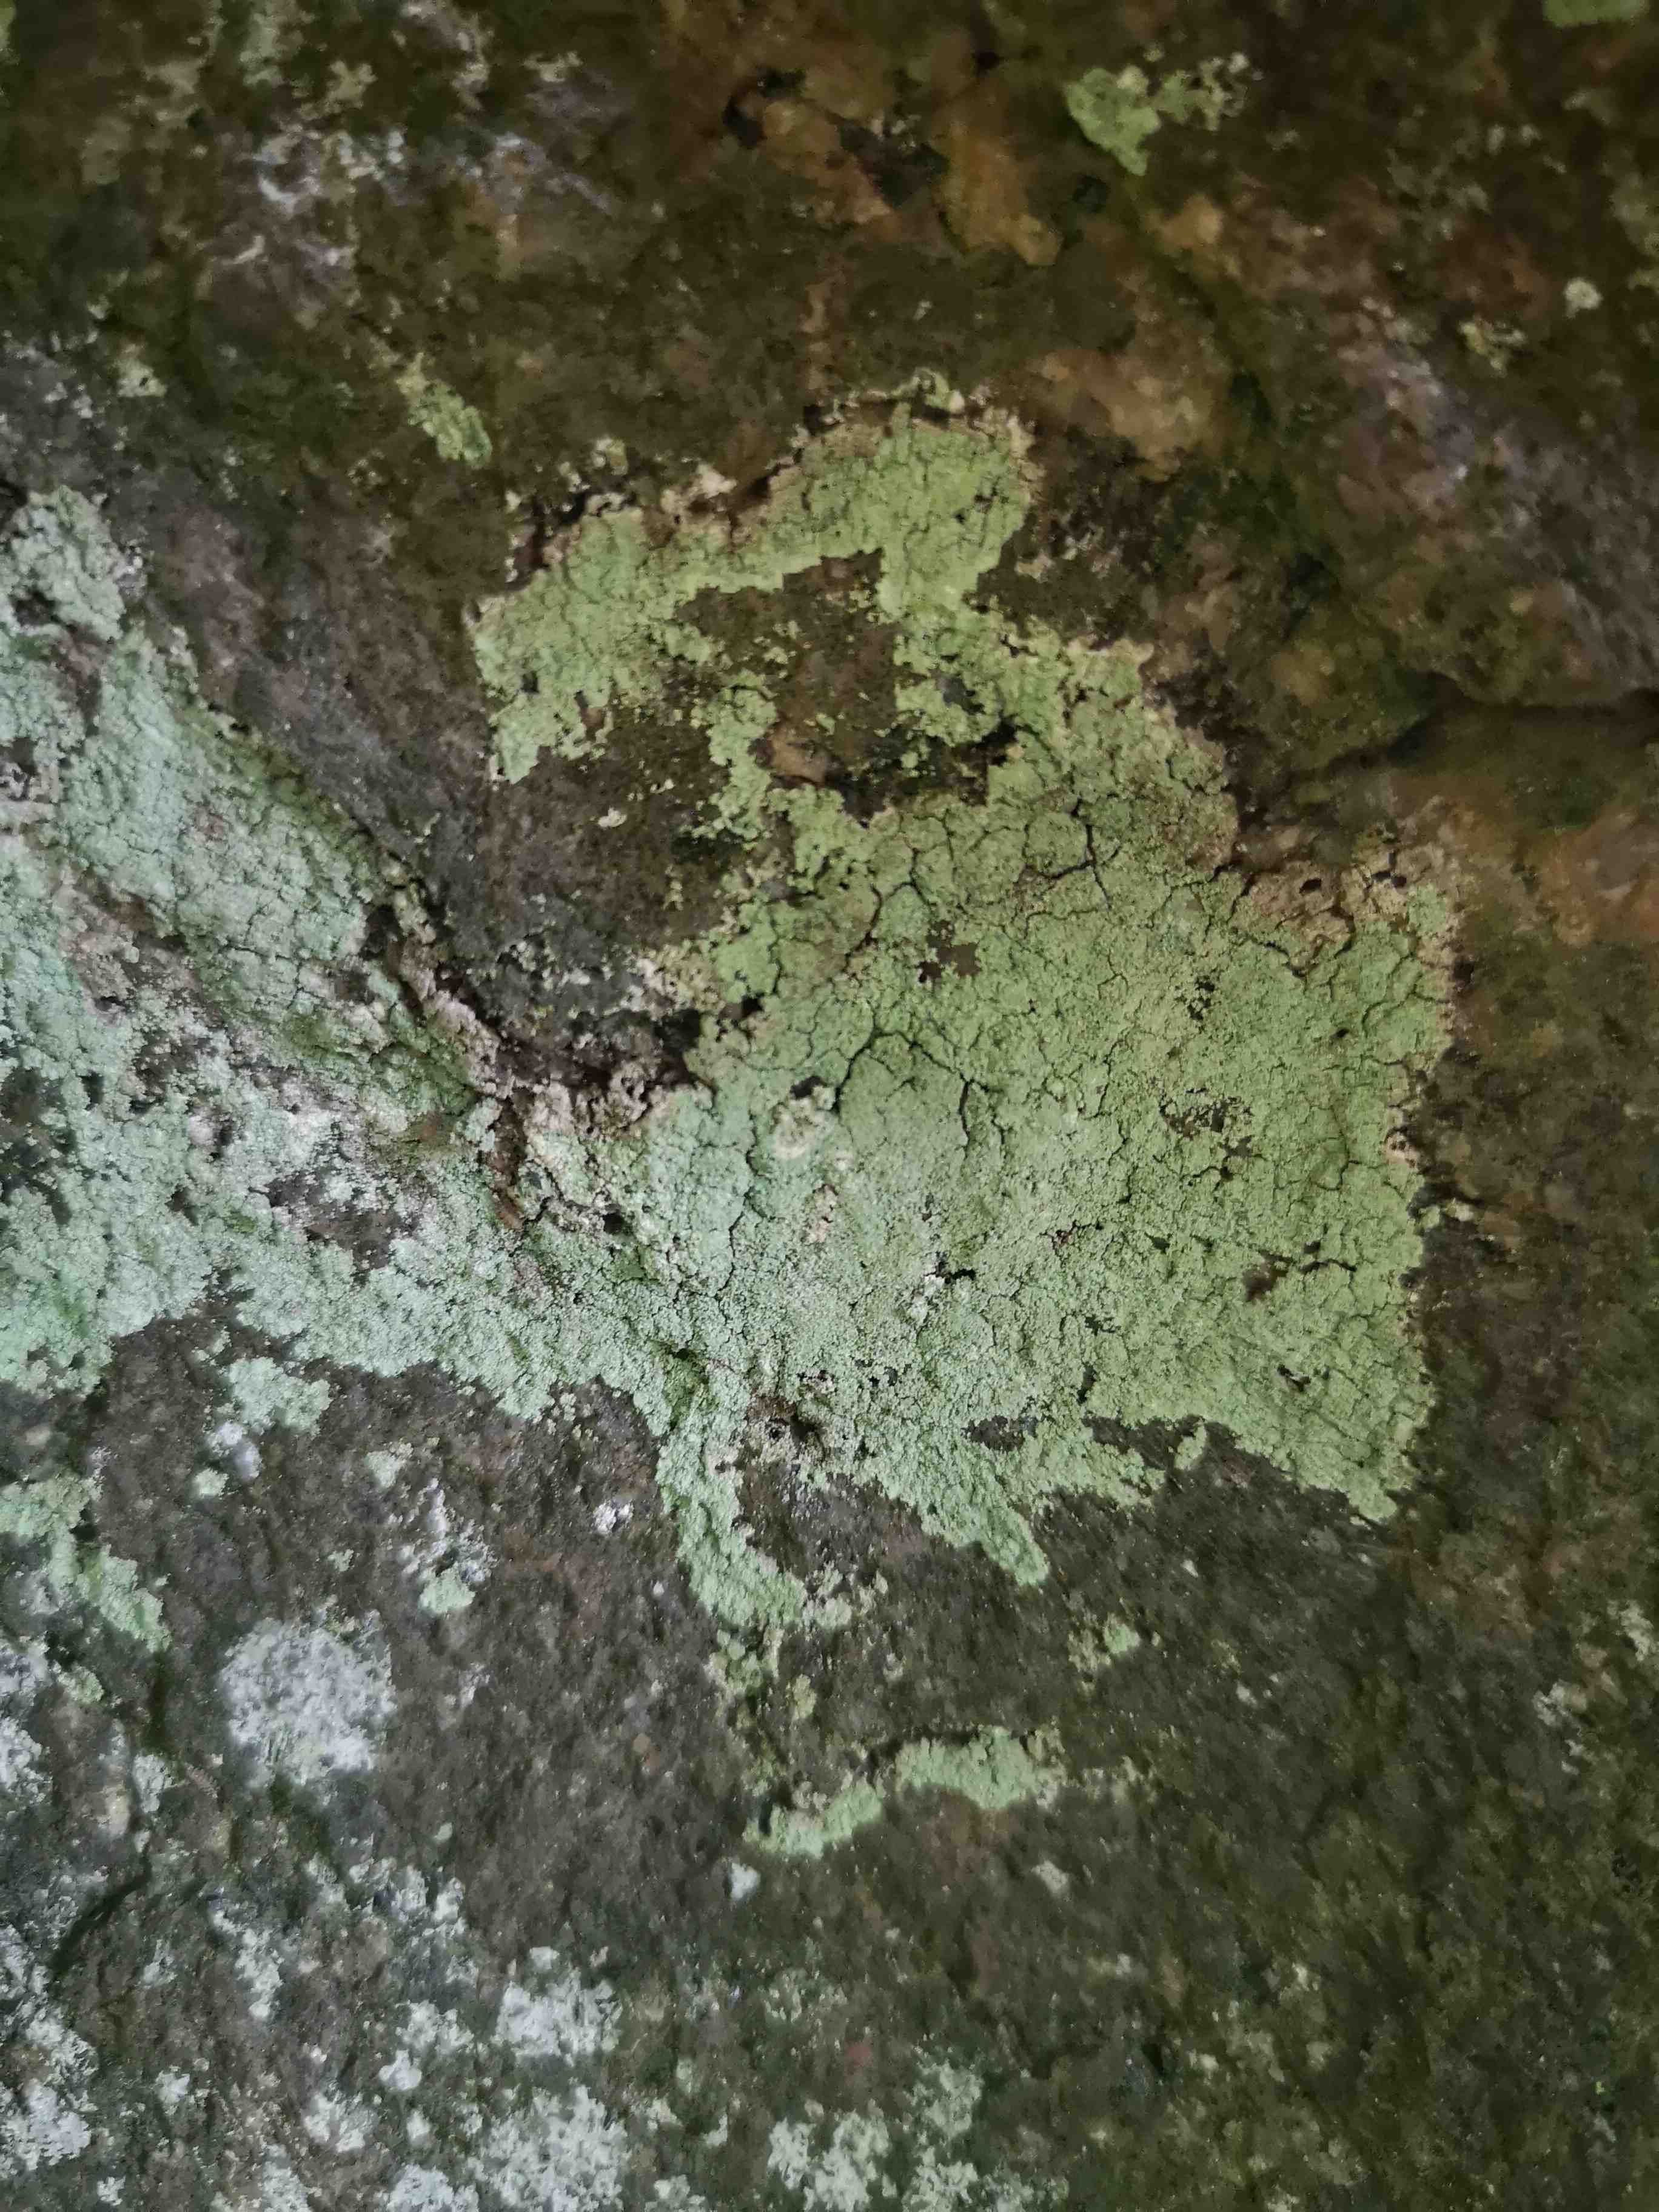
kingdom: Fungi
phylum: Ascomycota
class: Lecanoromycetes
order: Lecanorales
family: Stereocaulaceae
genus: Lepraria
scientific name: Lepraria
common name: støvlav
